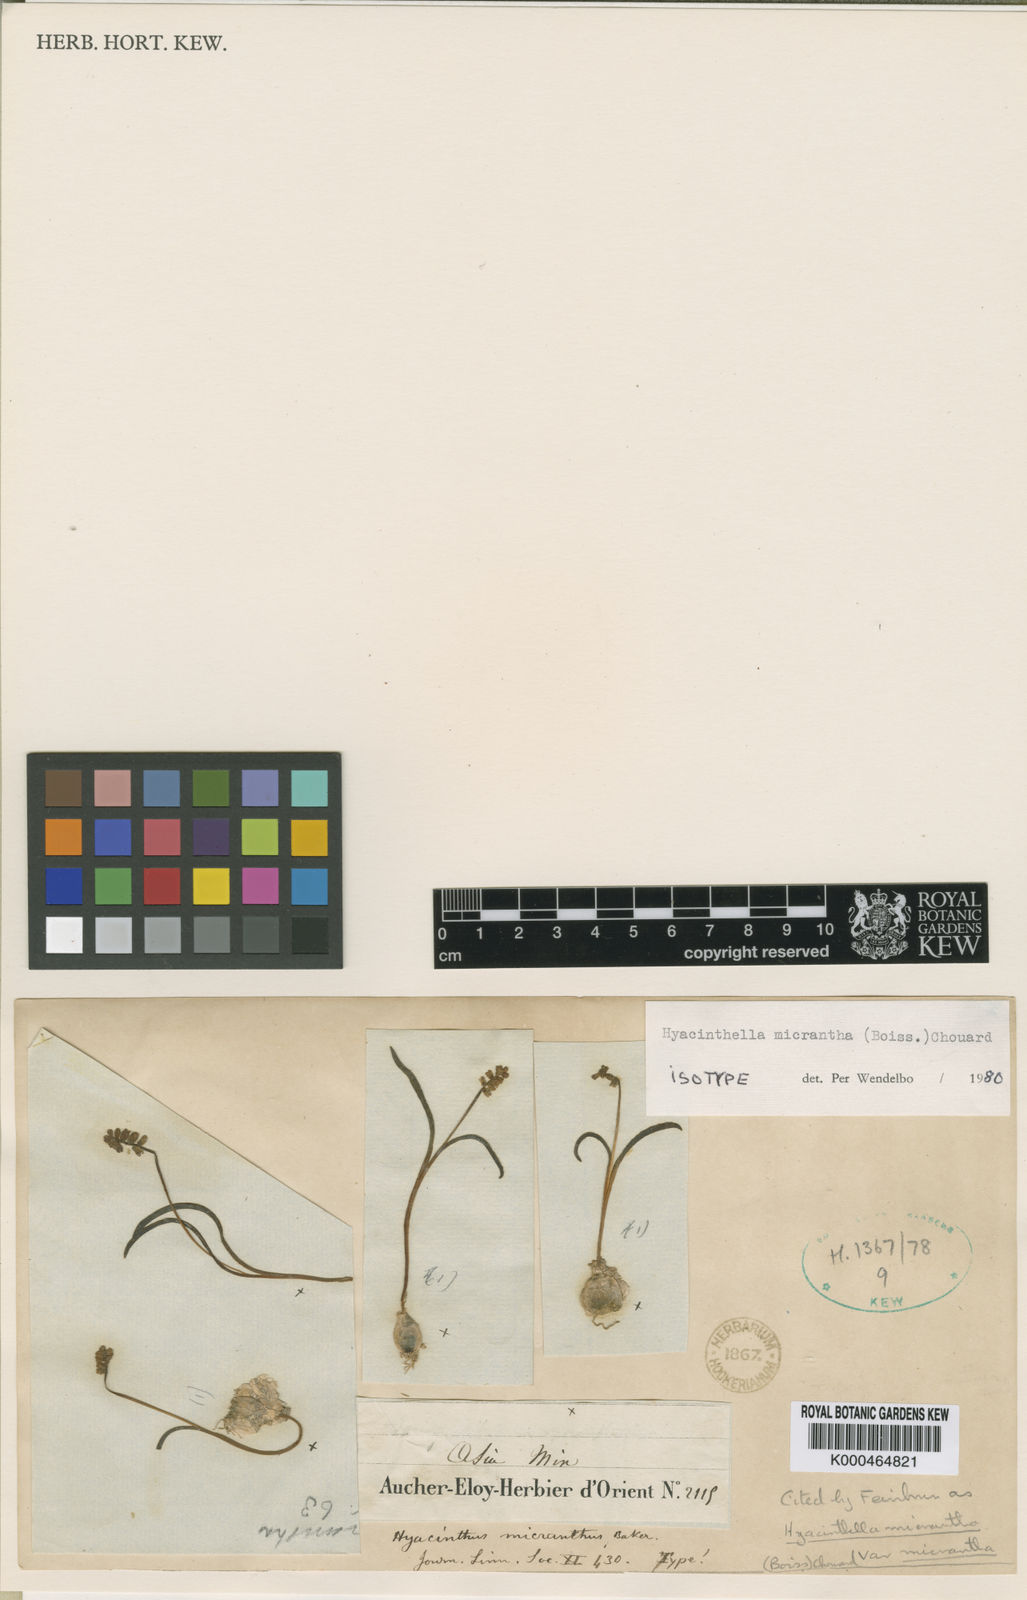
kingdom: Plantae
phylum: Tracheophyta
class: Liliopsida
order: Asparagales
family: Asparagaceae
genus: Hyacinthella
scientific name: Hyacinthella micrantha
